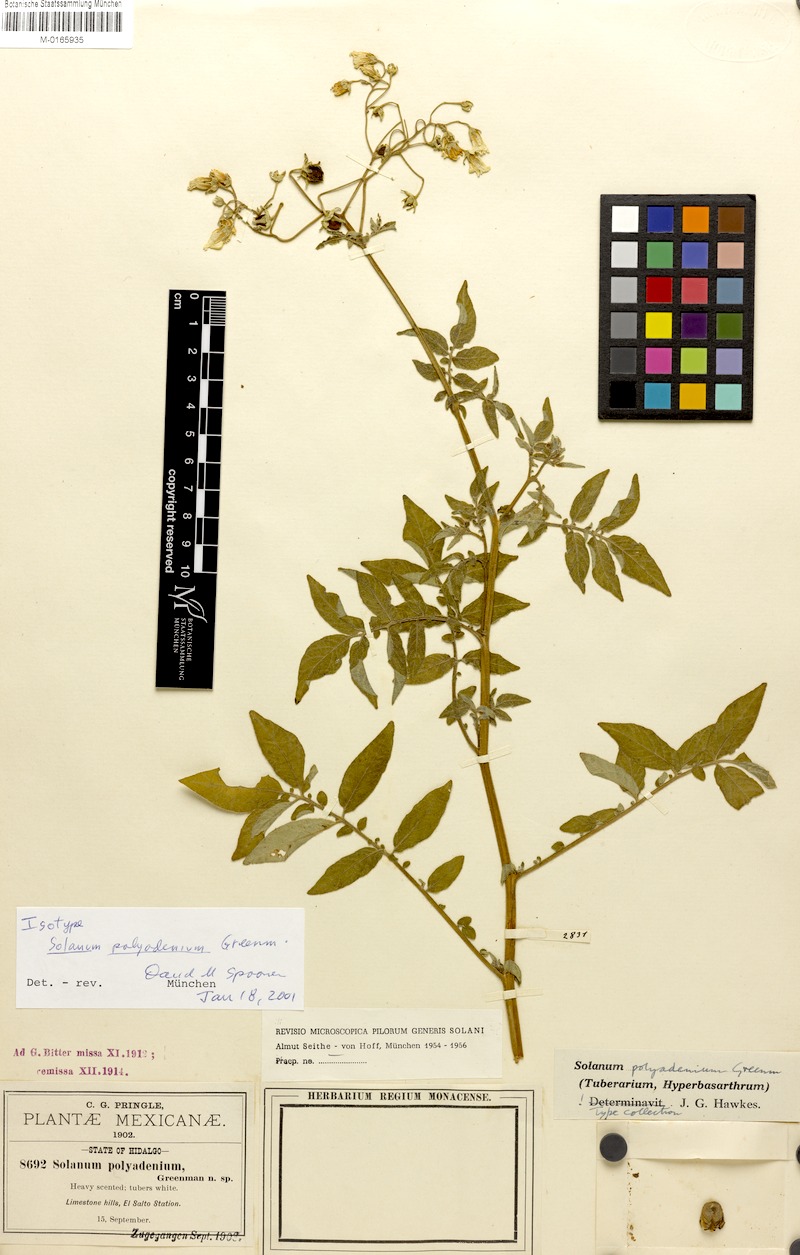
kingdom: Plantae
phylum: Tracheophyta
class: Magnoliopsida
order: Solanales
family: Solanaceae
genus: Solanum
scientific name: Solanum polyadenium
